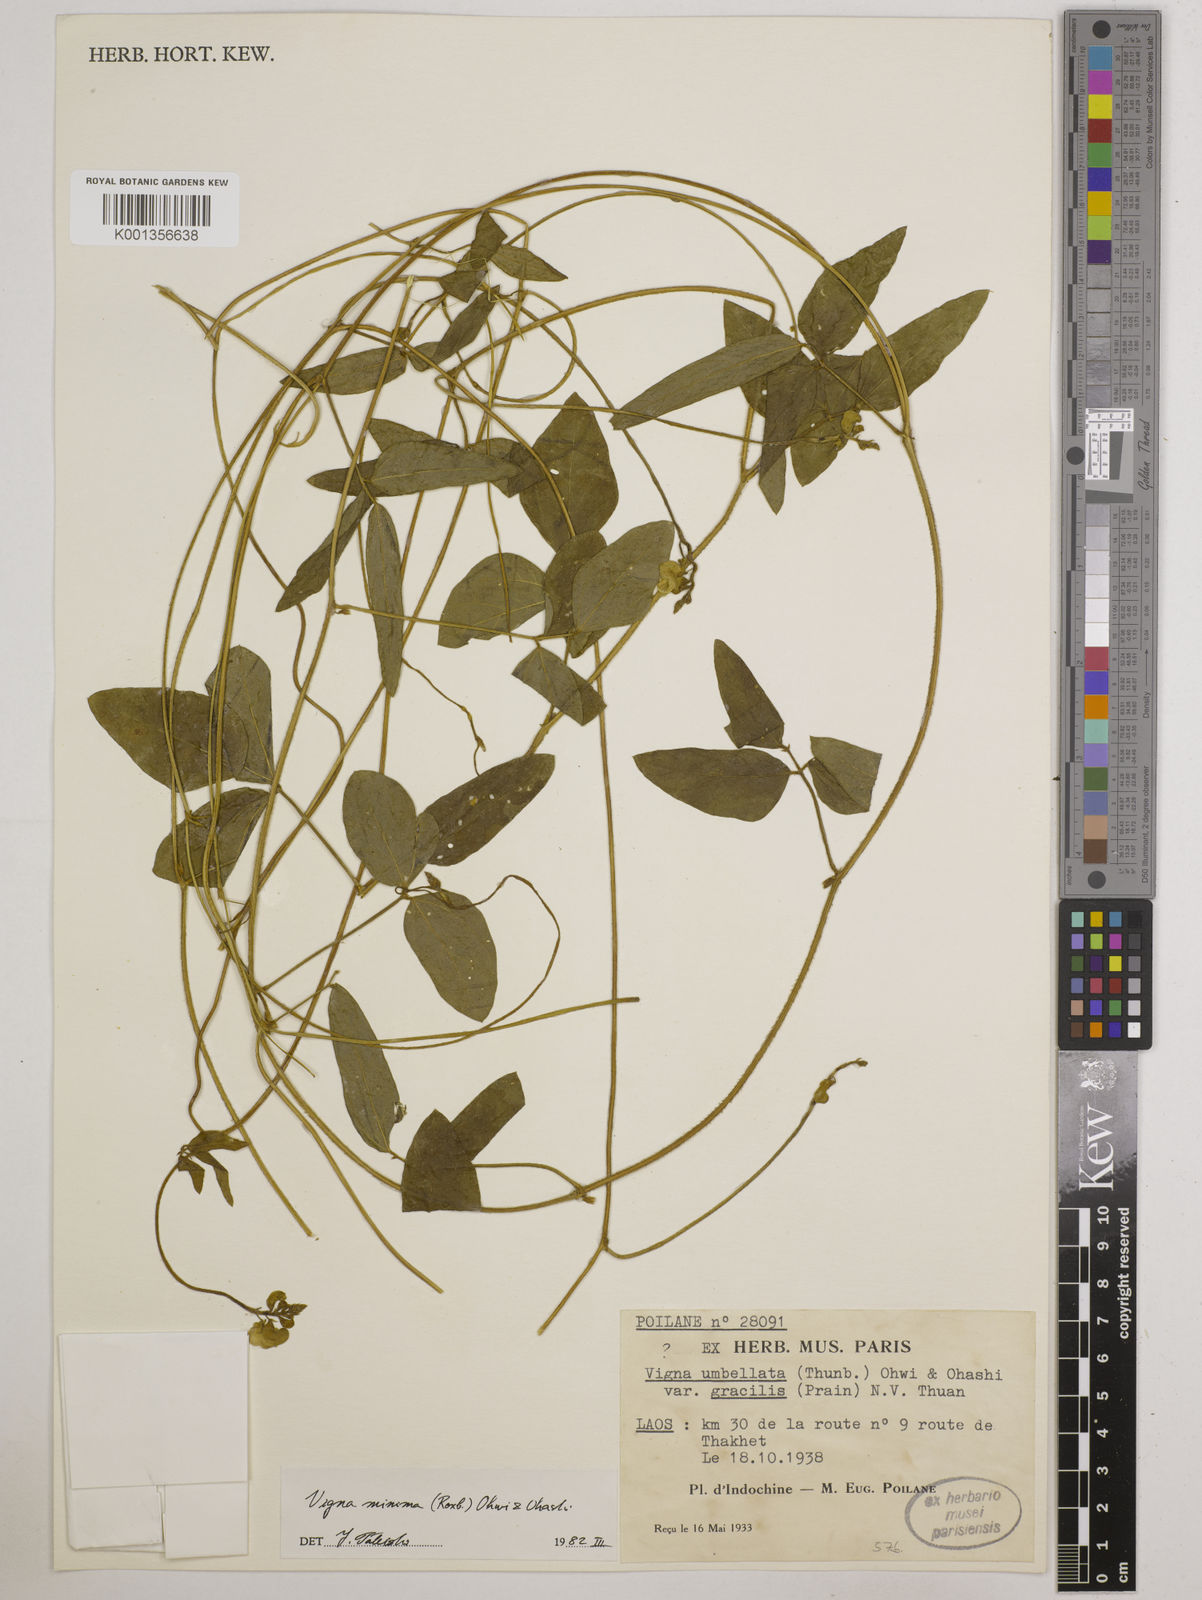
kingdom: Plantae
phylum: Tracheophyta
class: Magnoliopsida
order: Fabales
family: Fabaceae
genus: Vigna
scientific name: Vigna minima
